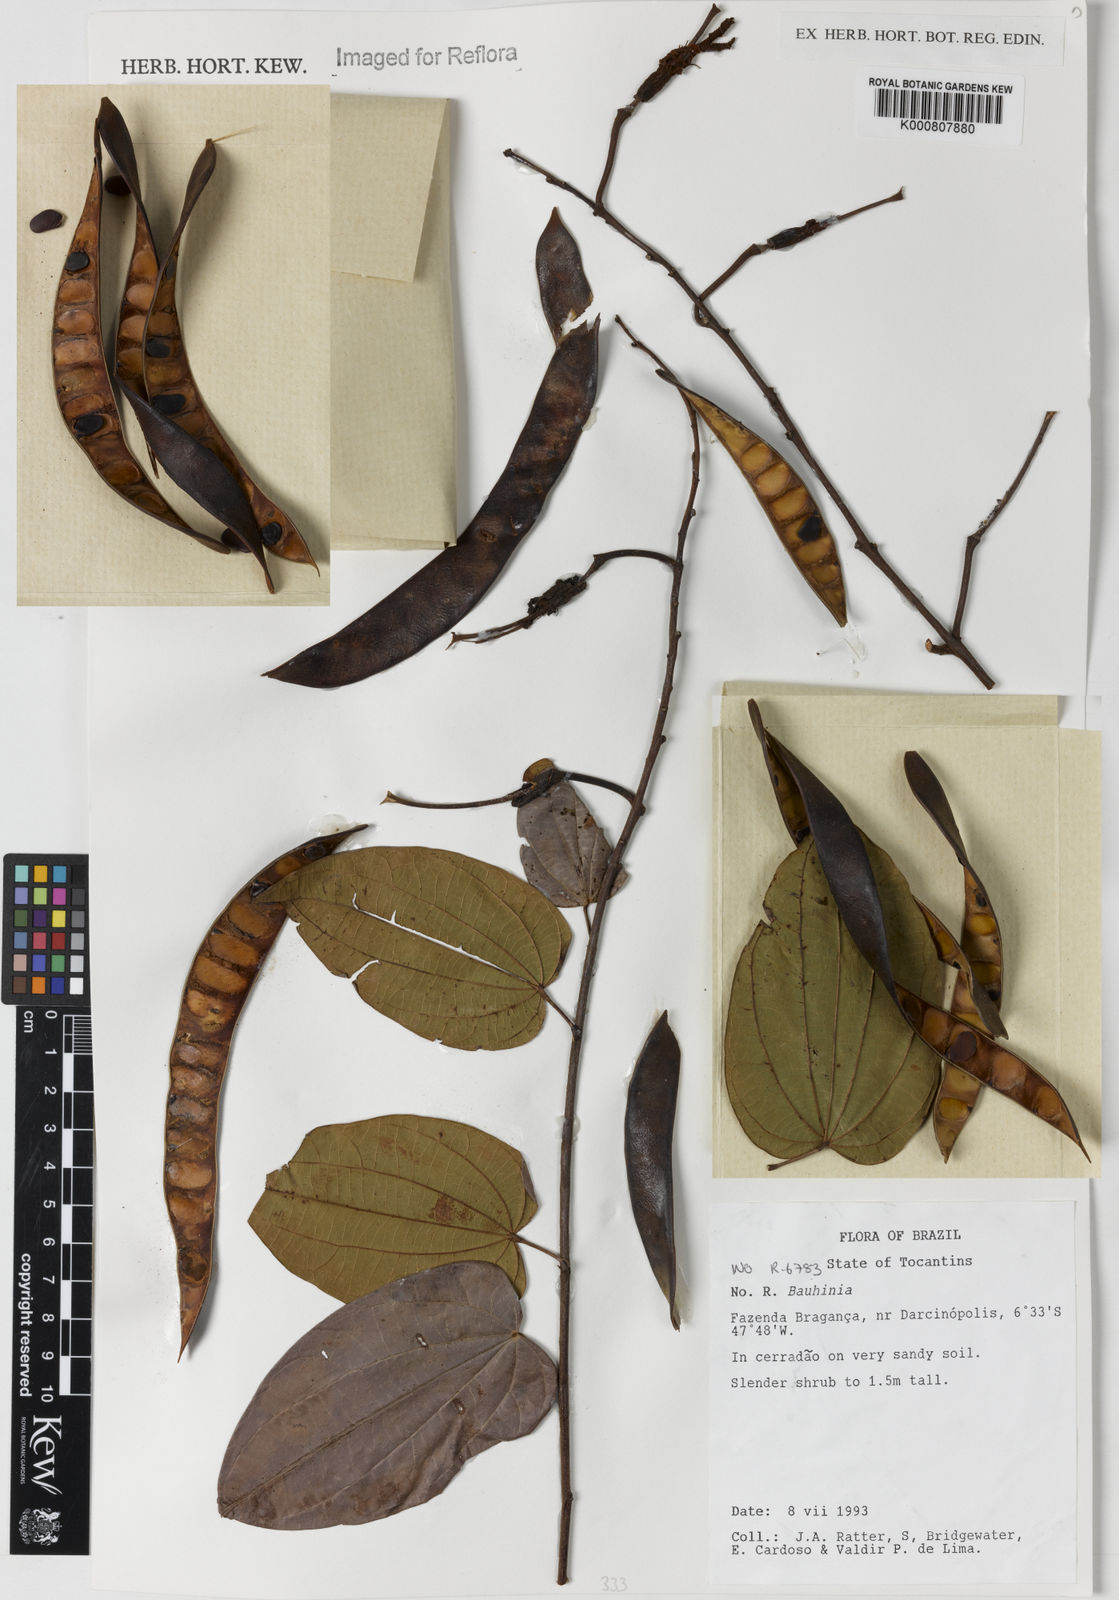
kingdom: Plantae
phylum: Tracheophyta
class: Magnoliopsida
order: Fabales
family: Fabaceae
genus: Bauhinia
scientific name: Bauhinia
